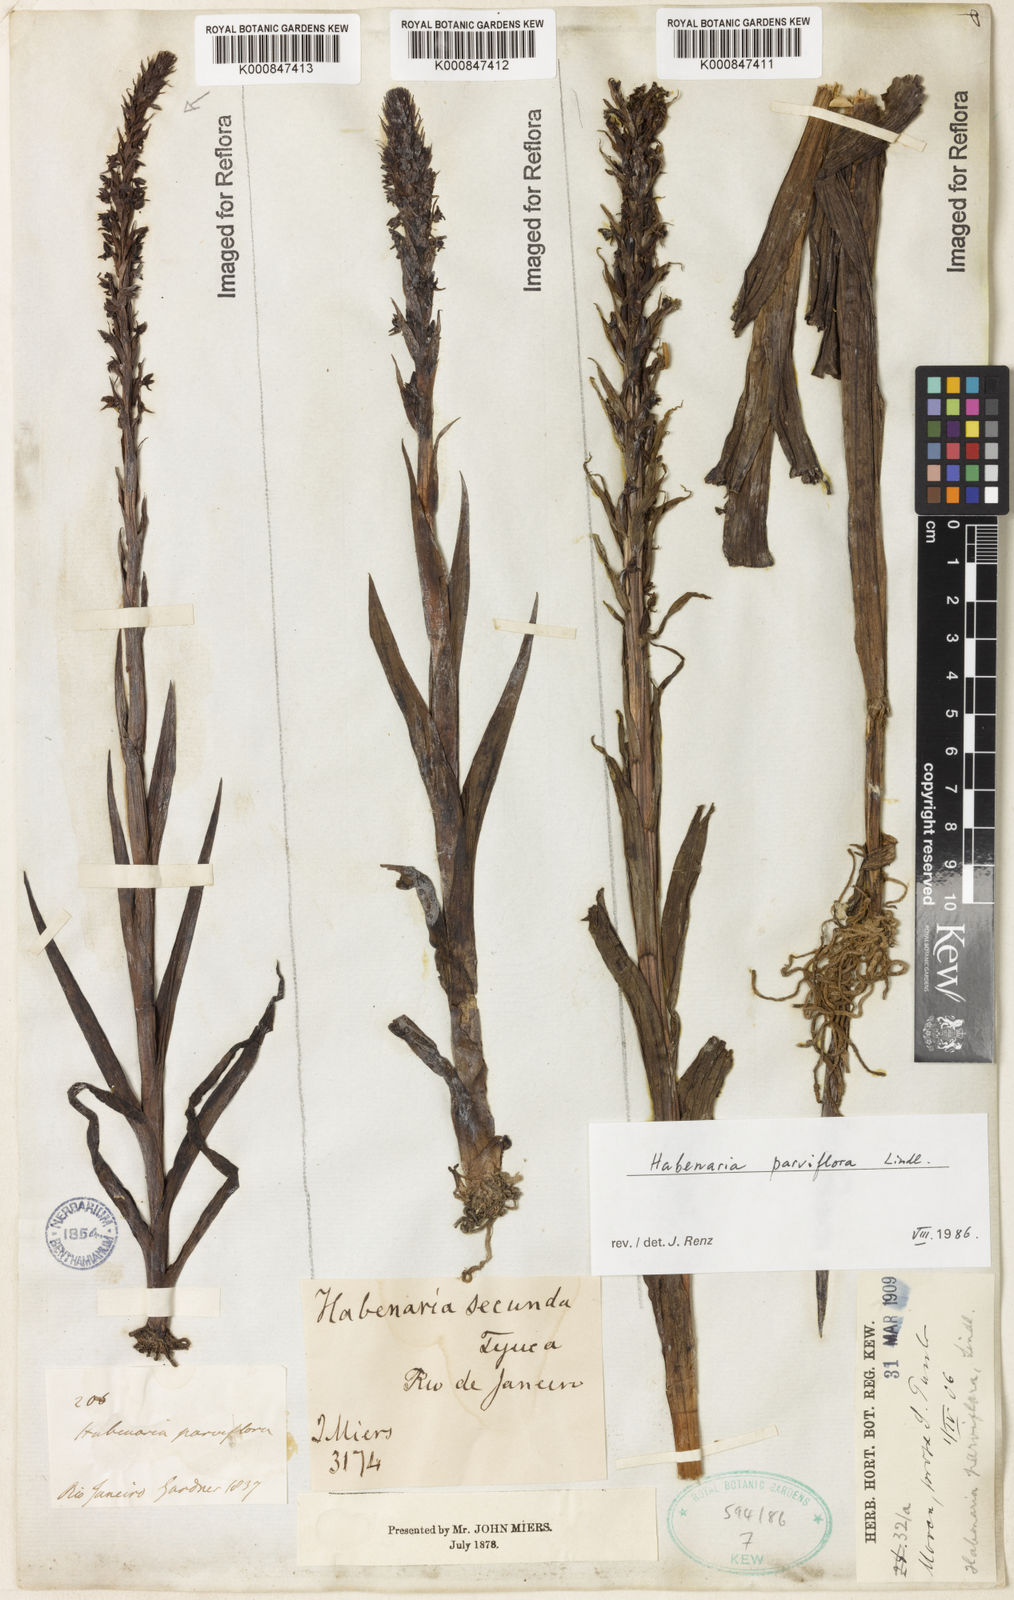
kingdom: Plantae
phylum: Tracheophyta
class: Liliopsida
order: Asparagales
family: Orchidaceae
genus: Habenaria
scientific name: Habenaria
